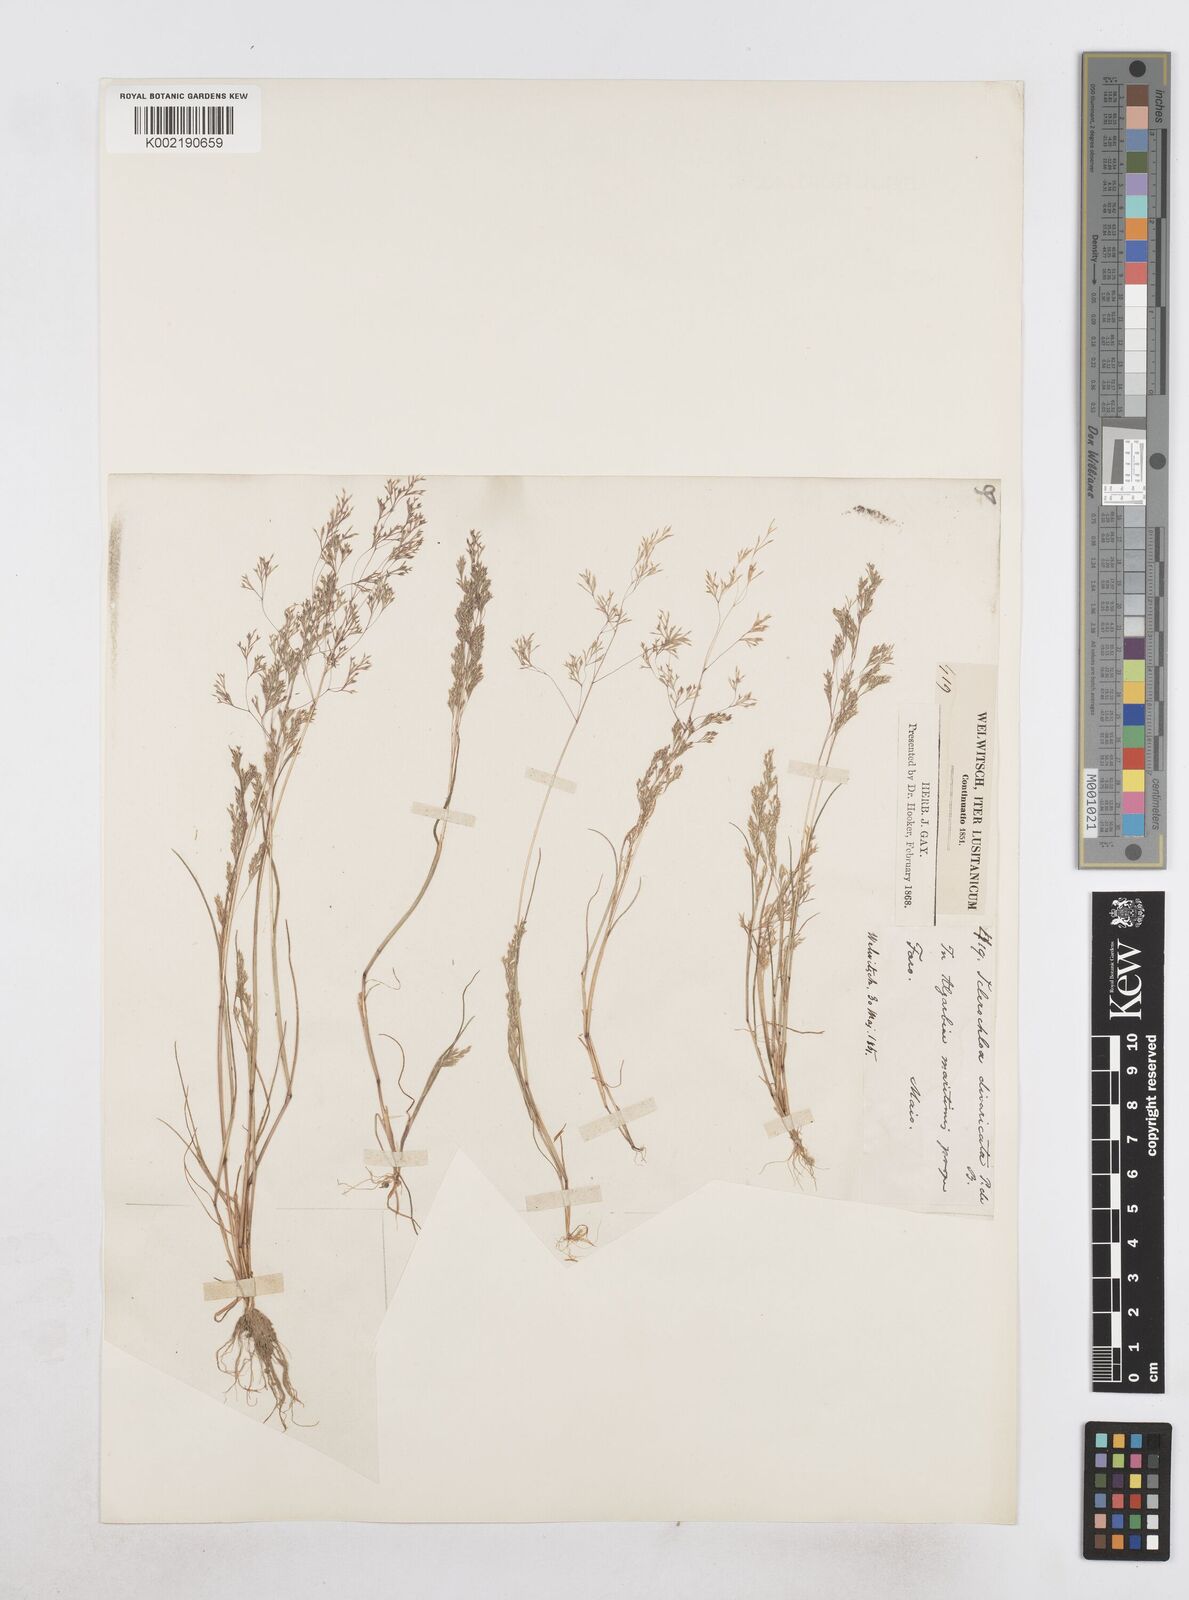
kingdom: Plantae
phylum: Tracheophyta
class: Liliopsida
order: Poales
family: Poaceae
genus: Sphenopus
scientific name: Sphenopus divaricatus
